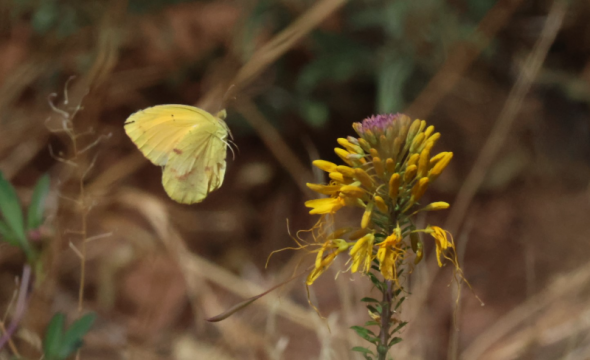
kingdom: Animalia
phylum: Arthropoda
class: Insecta
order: Lepidoptera
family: Pieridae
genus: Abaeis
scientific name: Abaeis nicippe
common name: Sleepy Orange
